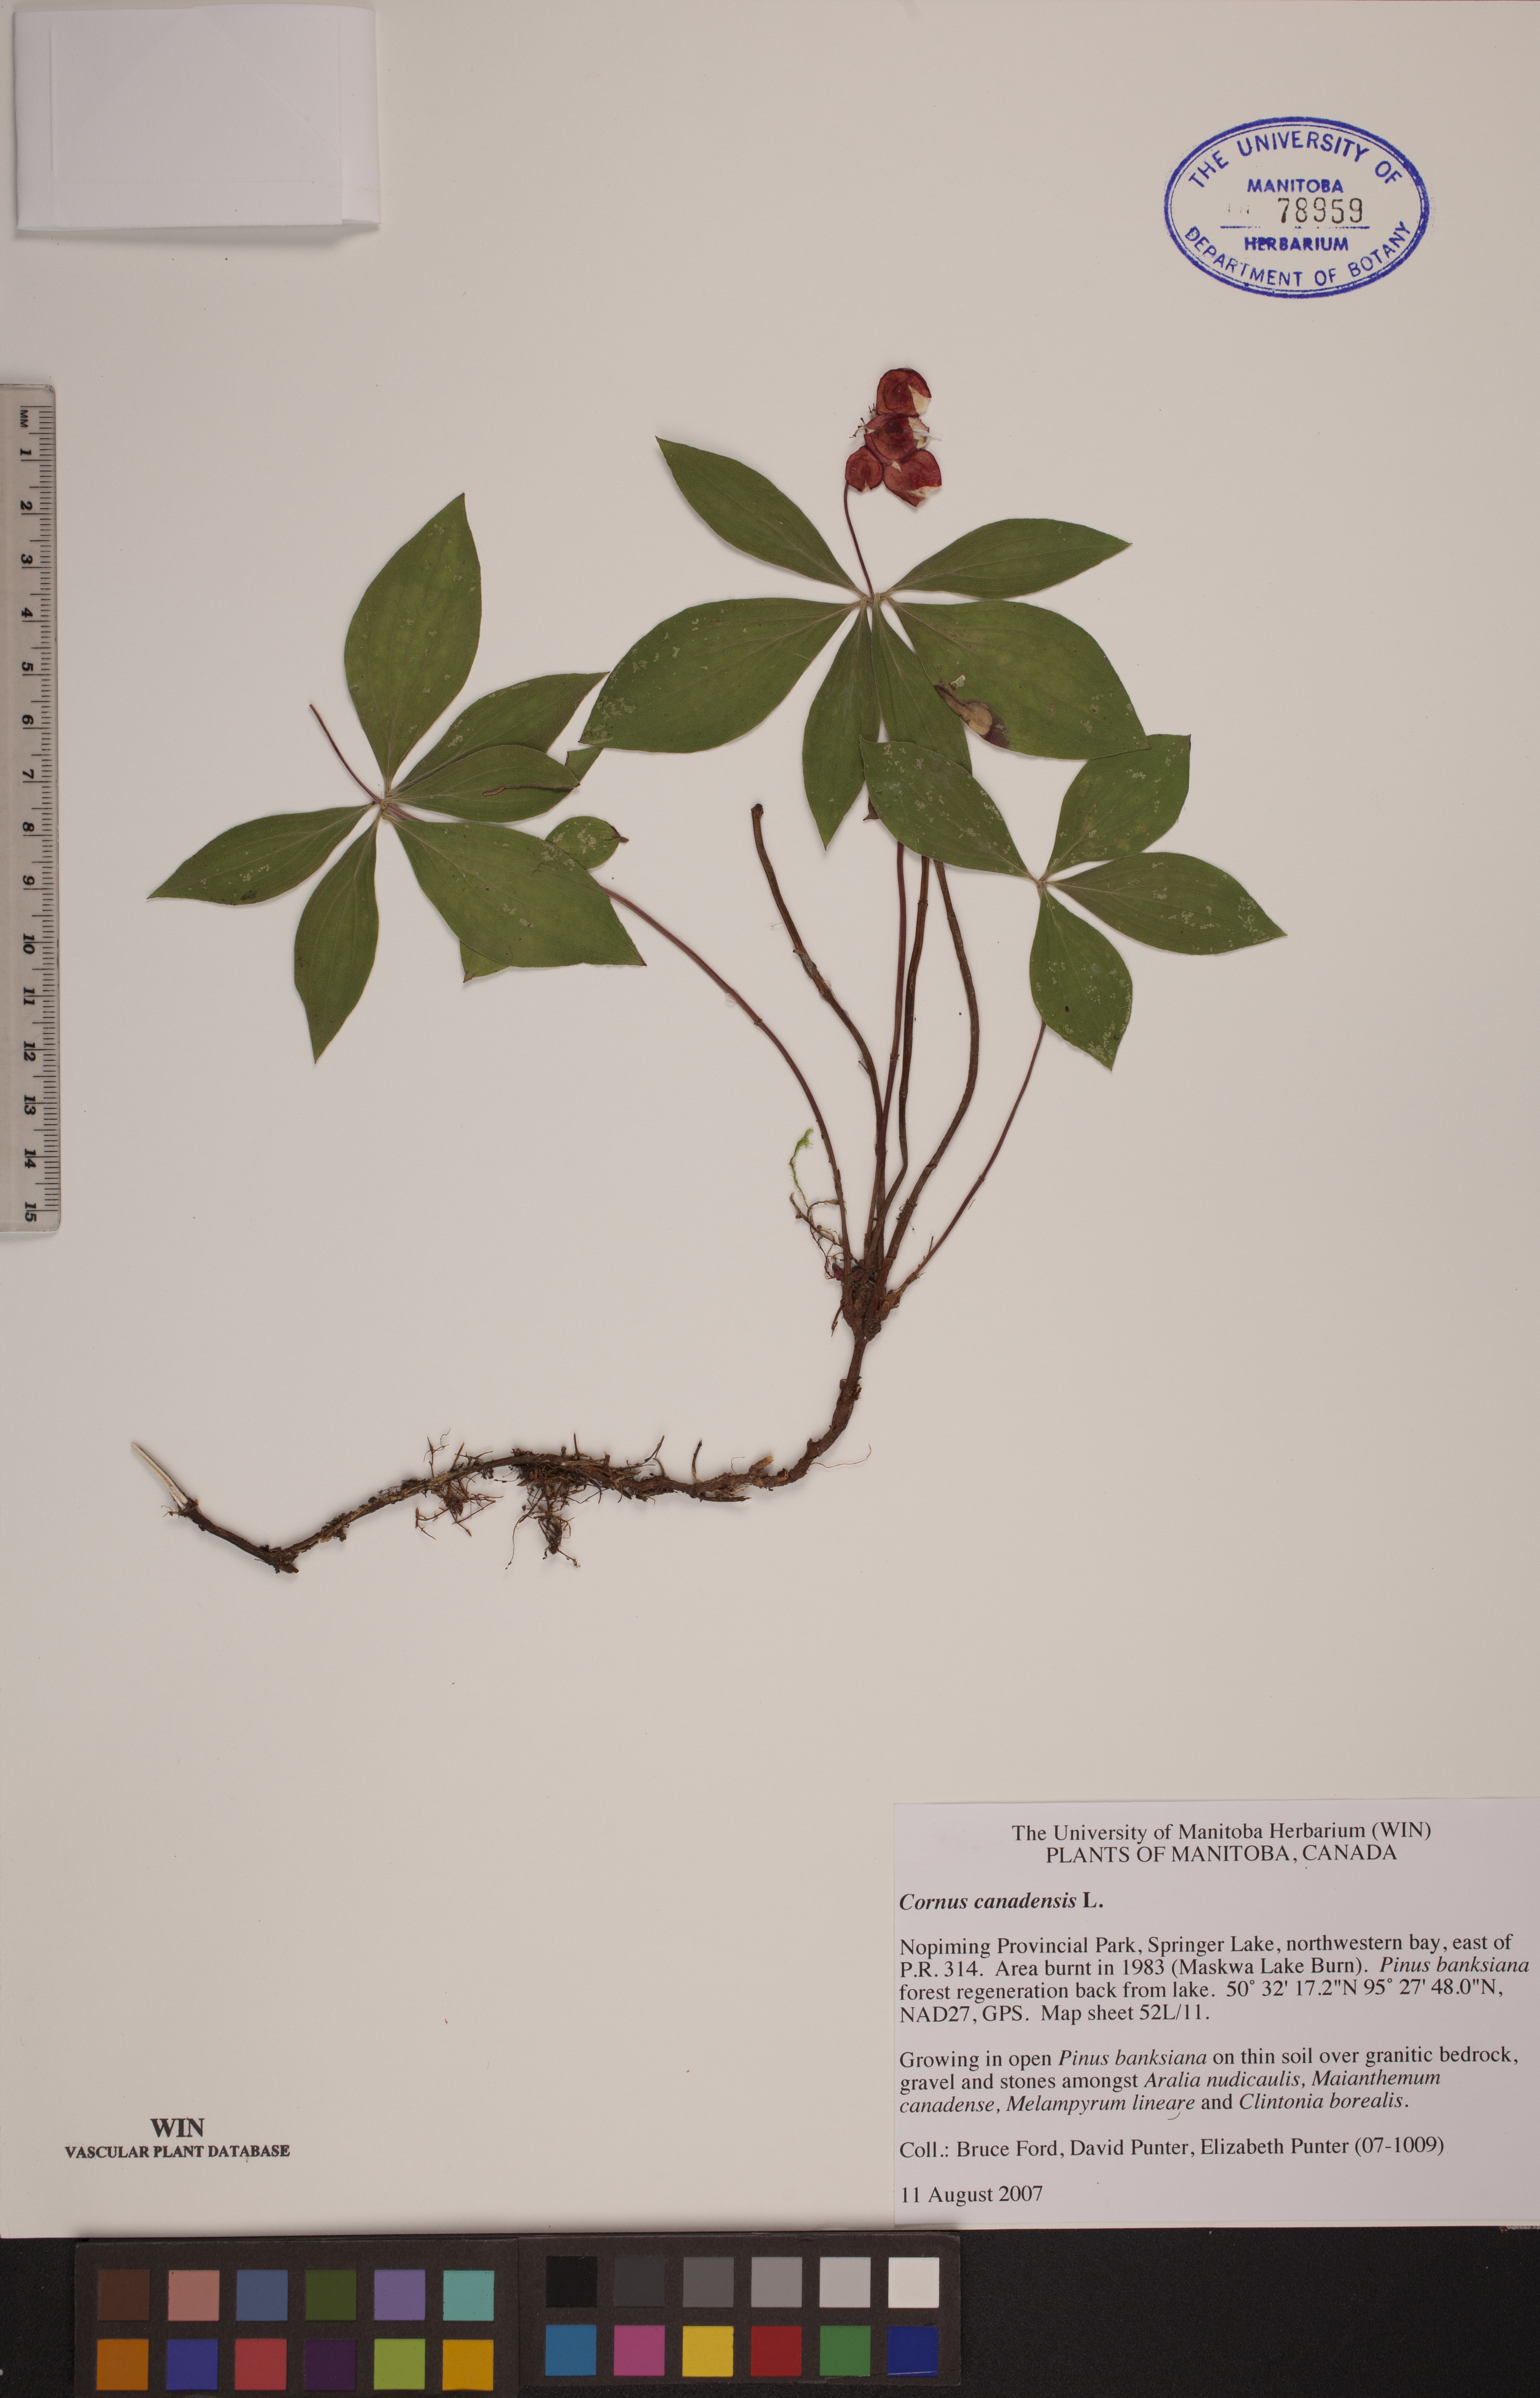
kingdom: Plantae
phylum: Tracheophyta
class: Magnoliopsida
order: Cornales
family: Cornaceae
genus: Cornus
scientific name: Cornus canadensis
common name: Creeping dogwood
